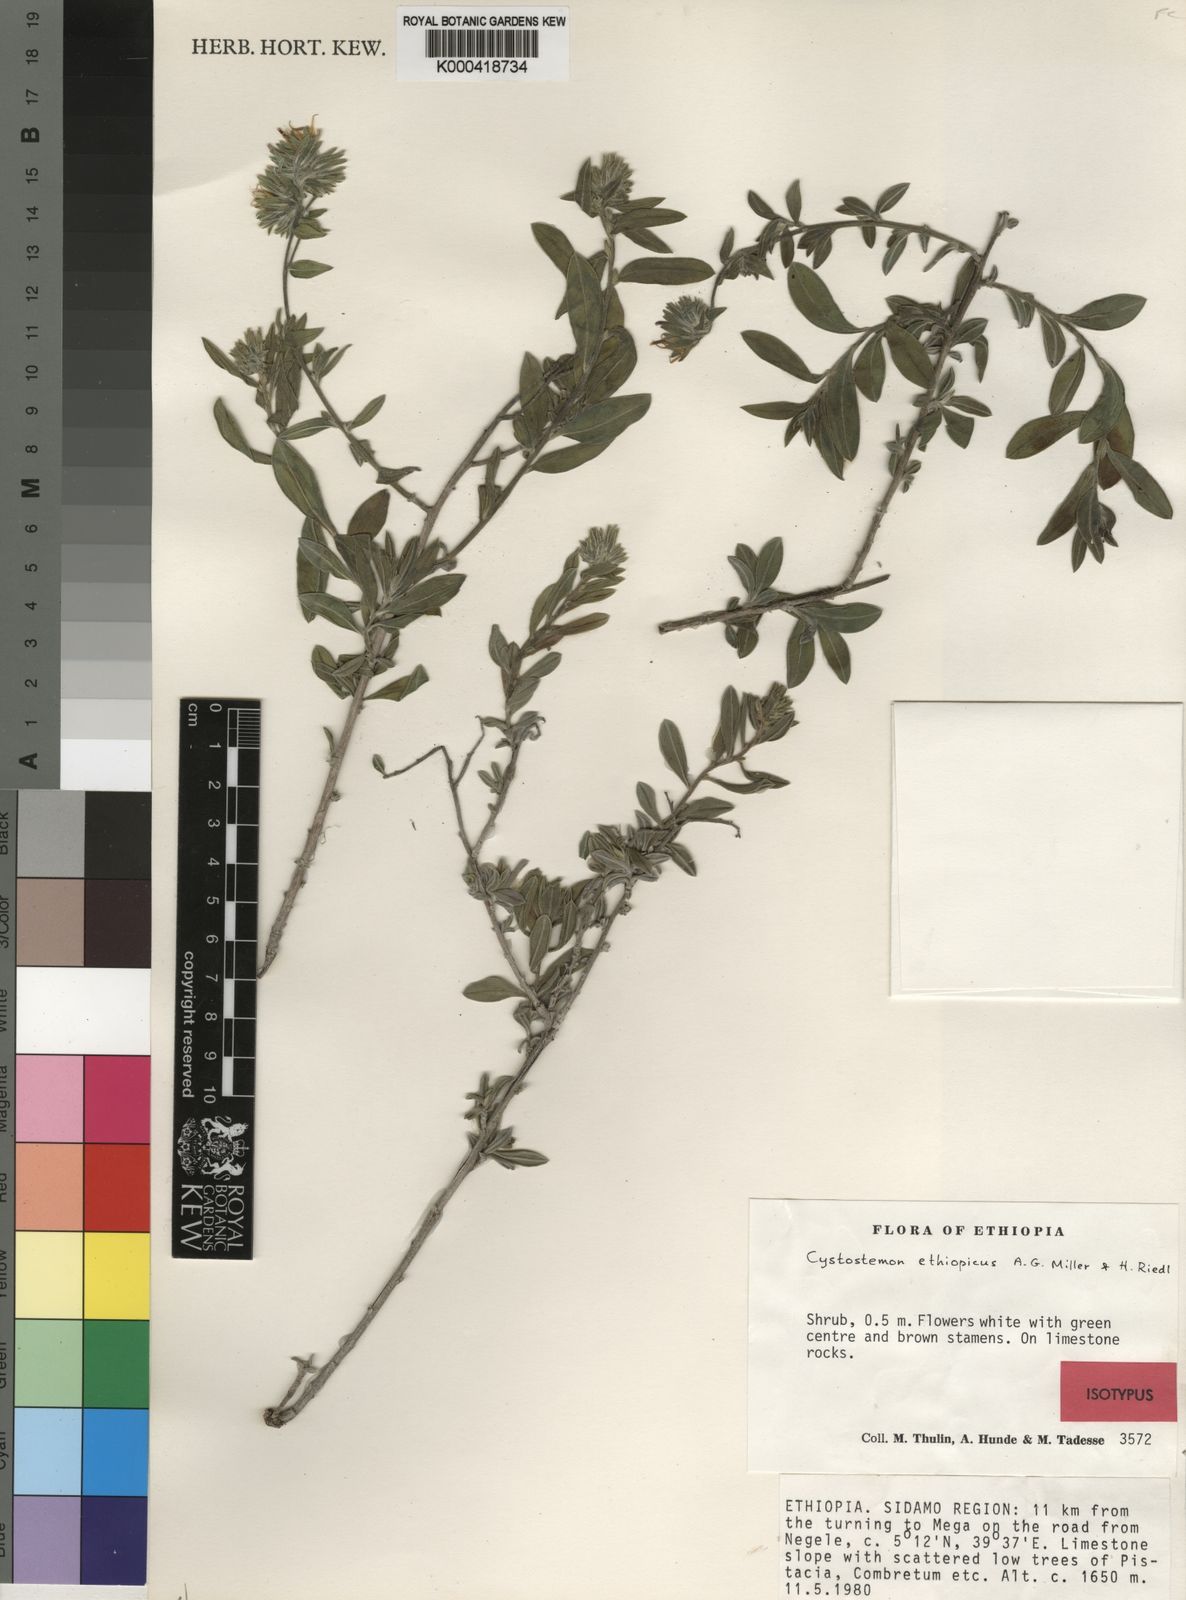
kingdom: Plantae
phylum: Tracheophyta
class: Magnoliopsida
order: Boraginales
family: Boraginaceae
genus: Cystostemon
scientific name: Cystostemon ethiopicus
